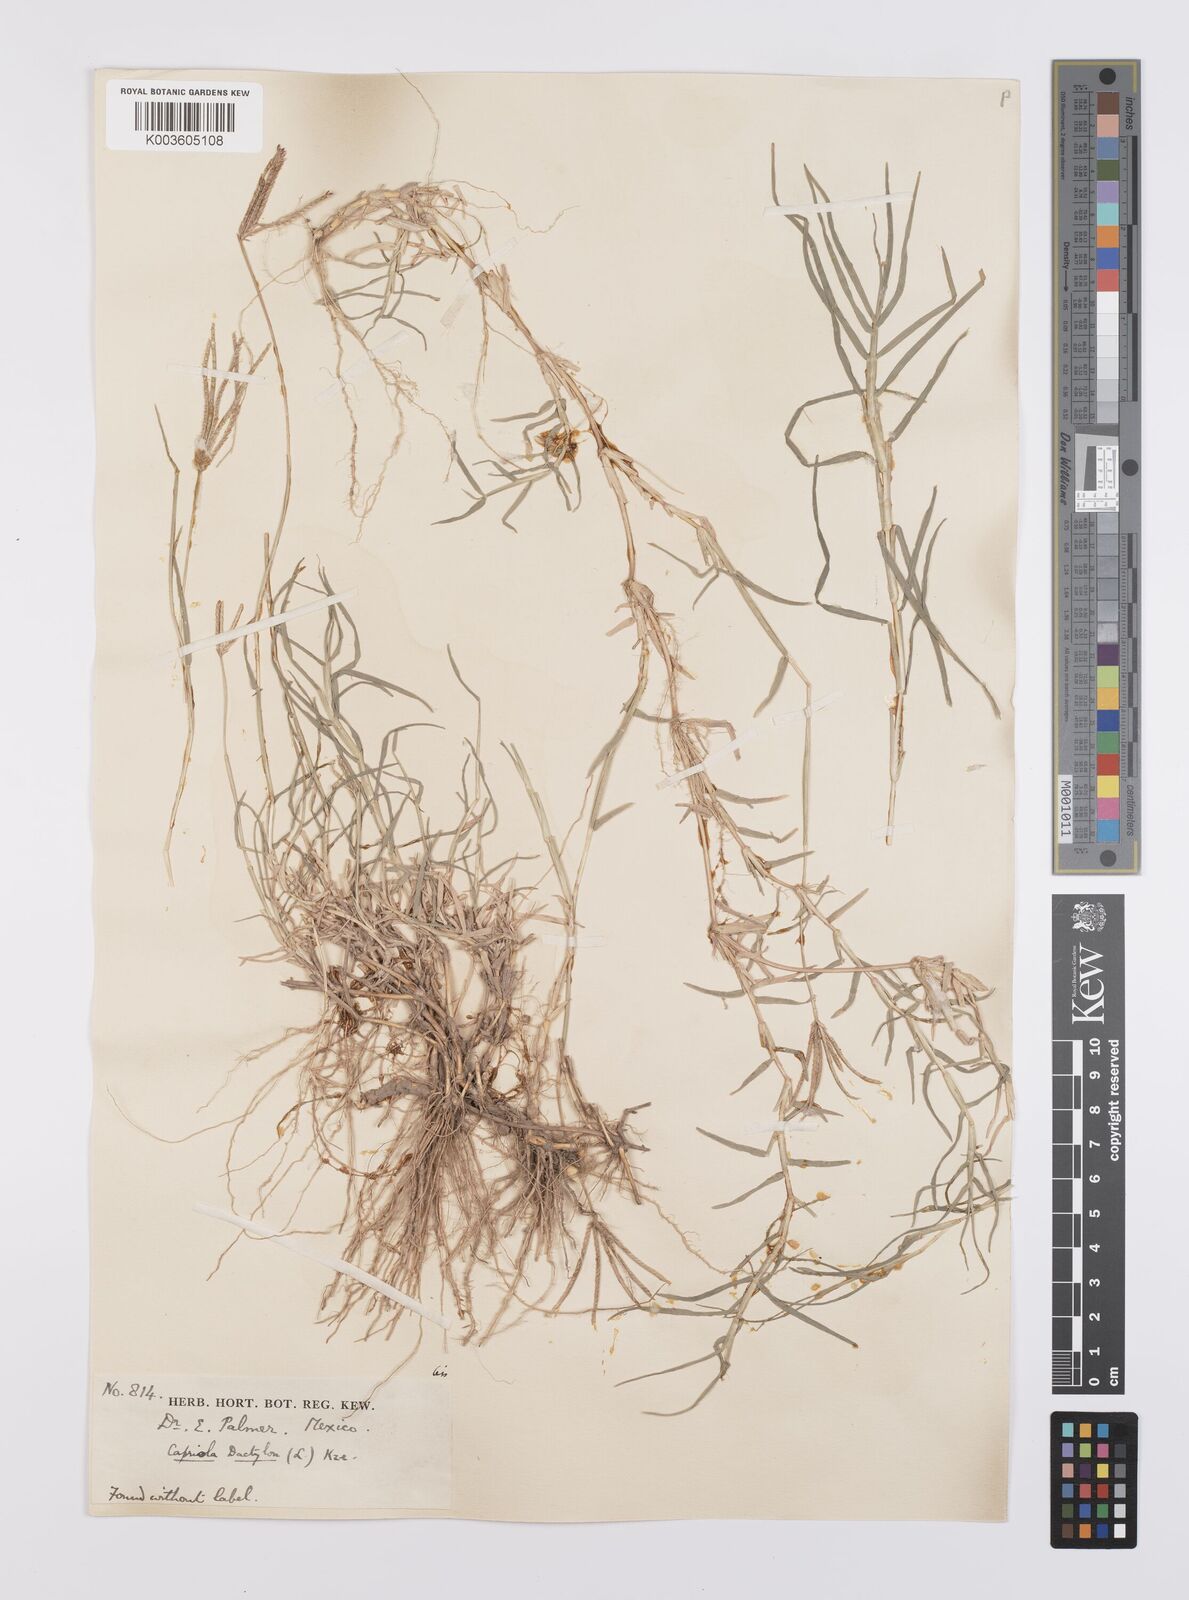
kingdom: Plantae
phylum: Tracheophyta
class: Liliopsida
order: Poales
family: Poaceae
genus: Cynodon
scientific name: Cynodon dactylon
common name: Bermuda grass
